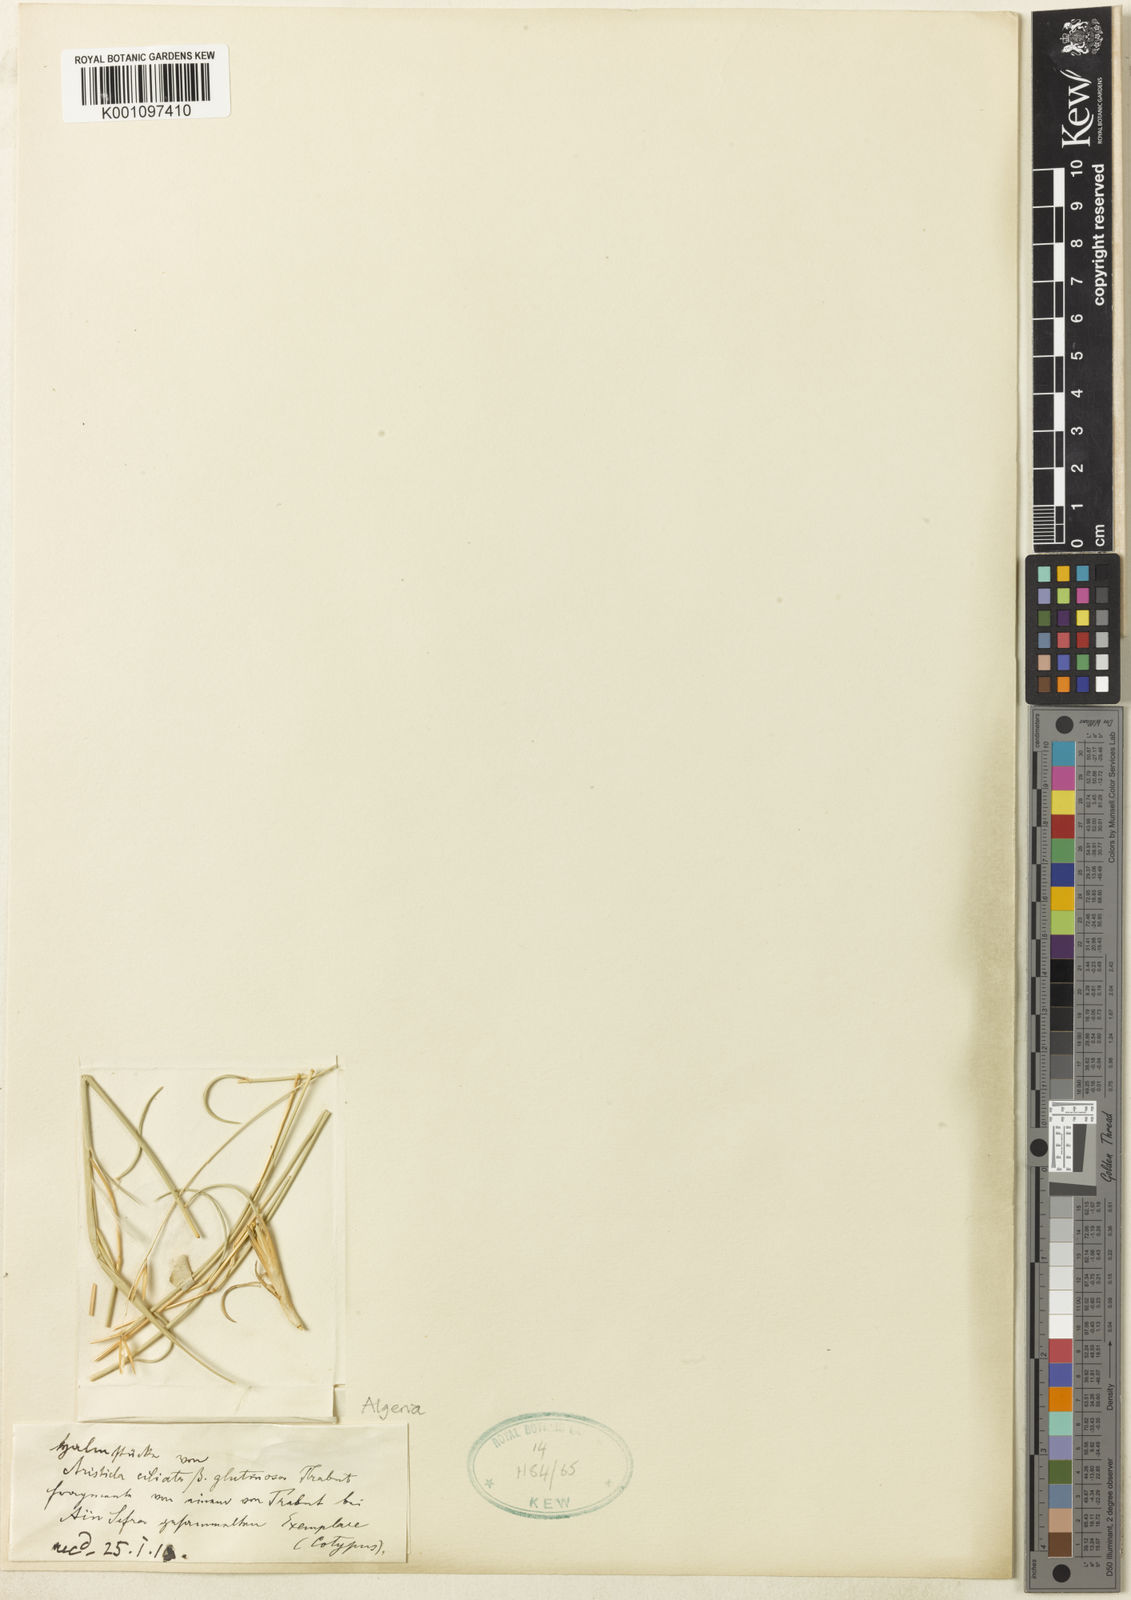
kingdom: Plantae
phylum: Tracheophyta
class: Liliopsida
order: Poales
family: Poaceae
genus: Stipagrostis
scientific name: Stipagrostis ciliata
